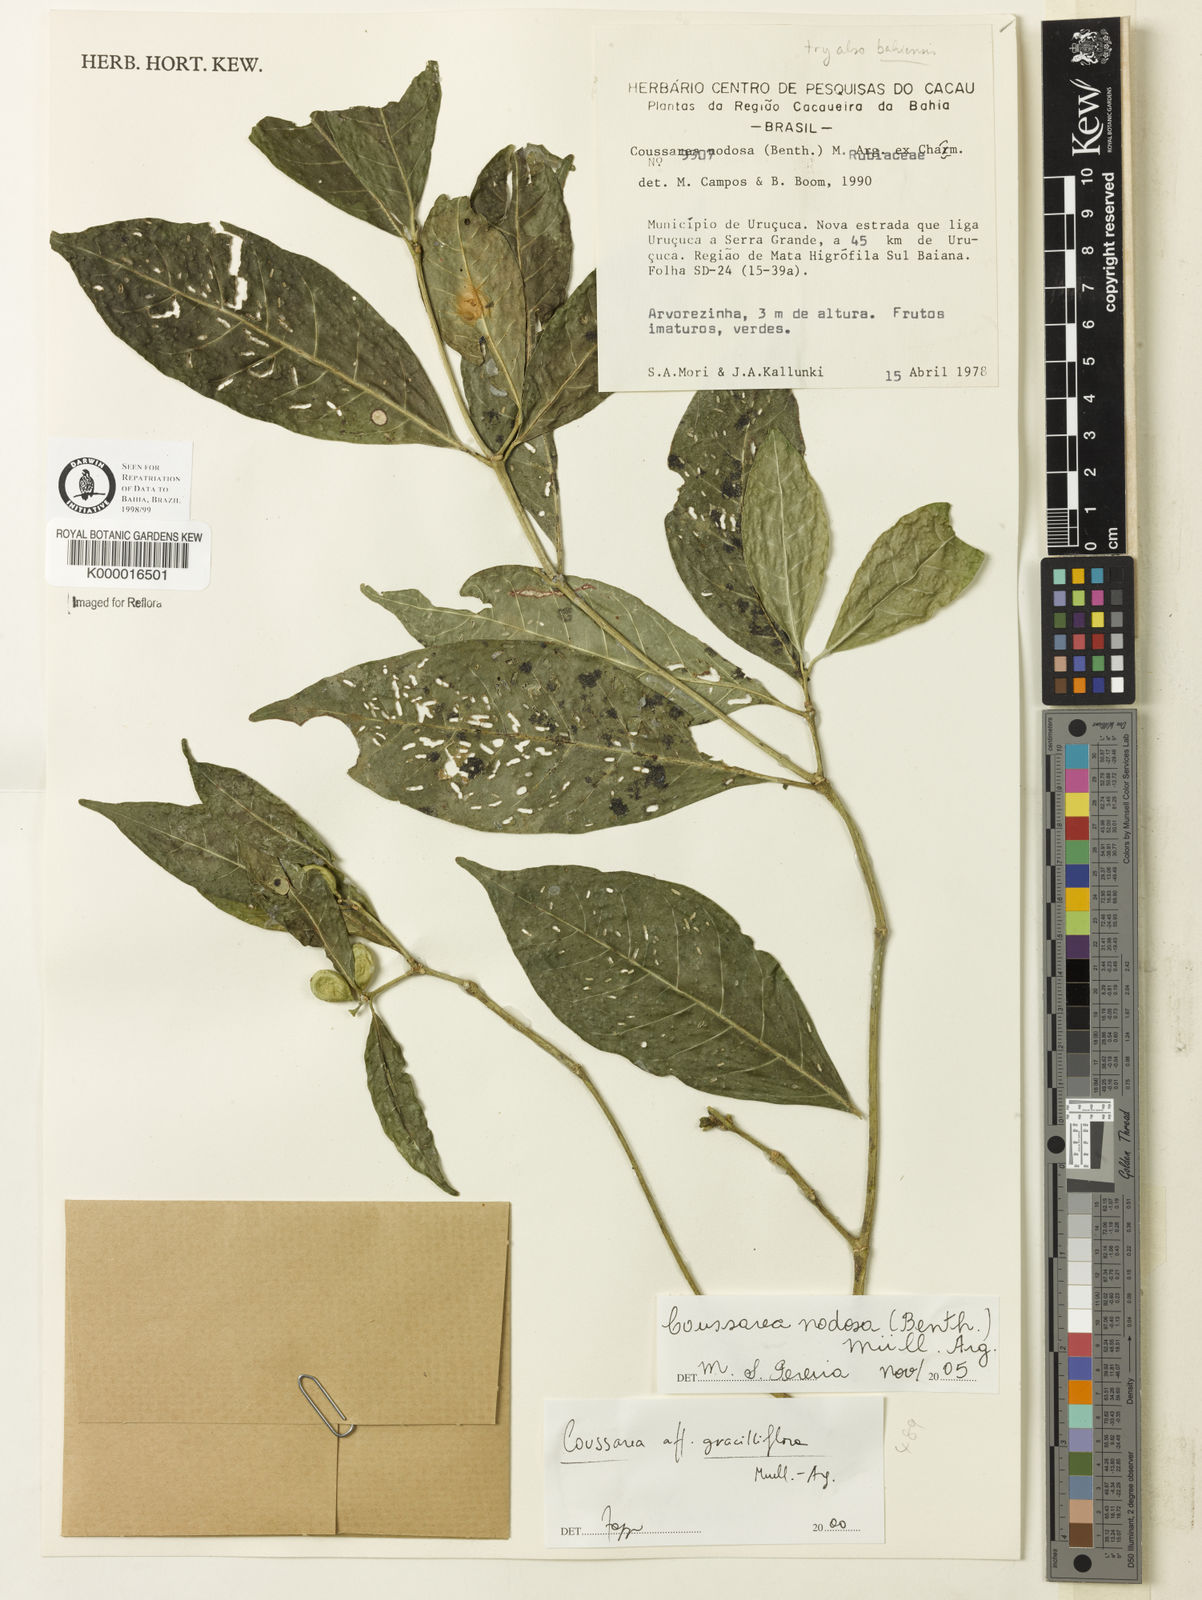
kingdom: Plantae
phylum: Tracheophyta
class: Magnoliopsida
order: Gentianales
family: Rubiaceae
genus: Coussarea
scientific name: Coussarea
